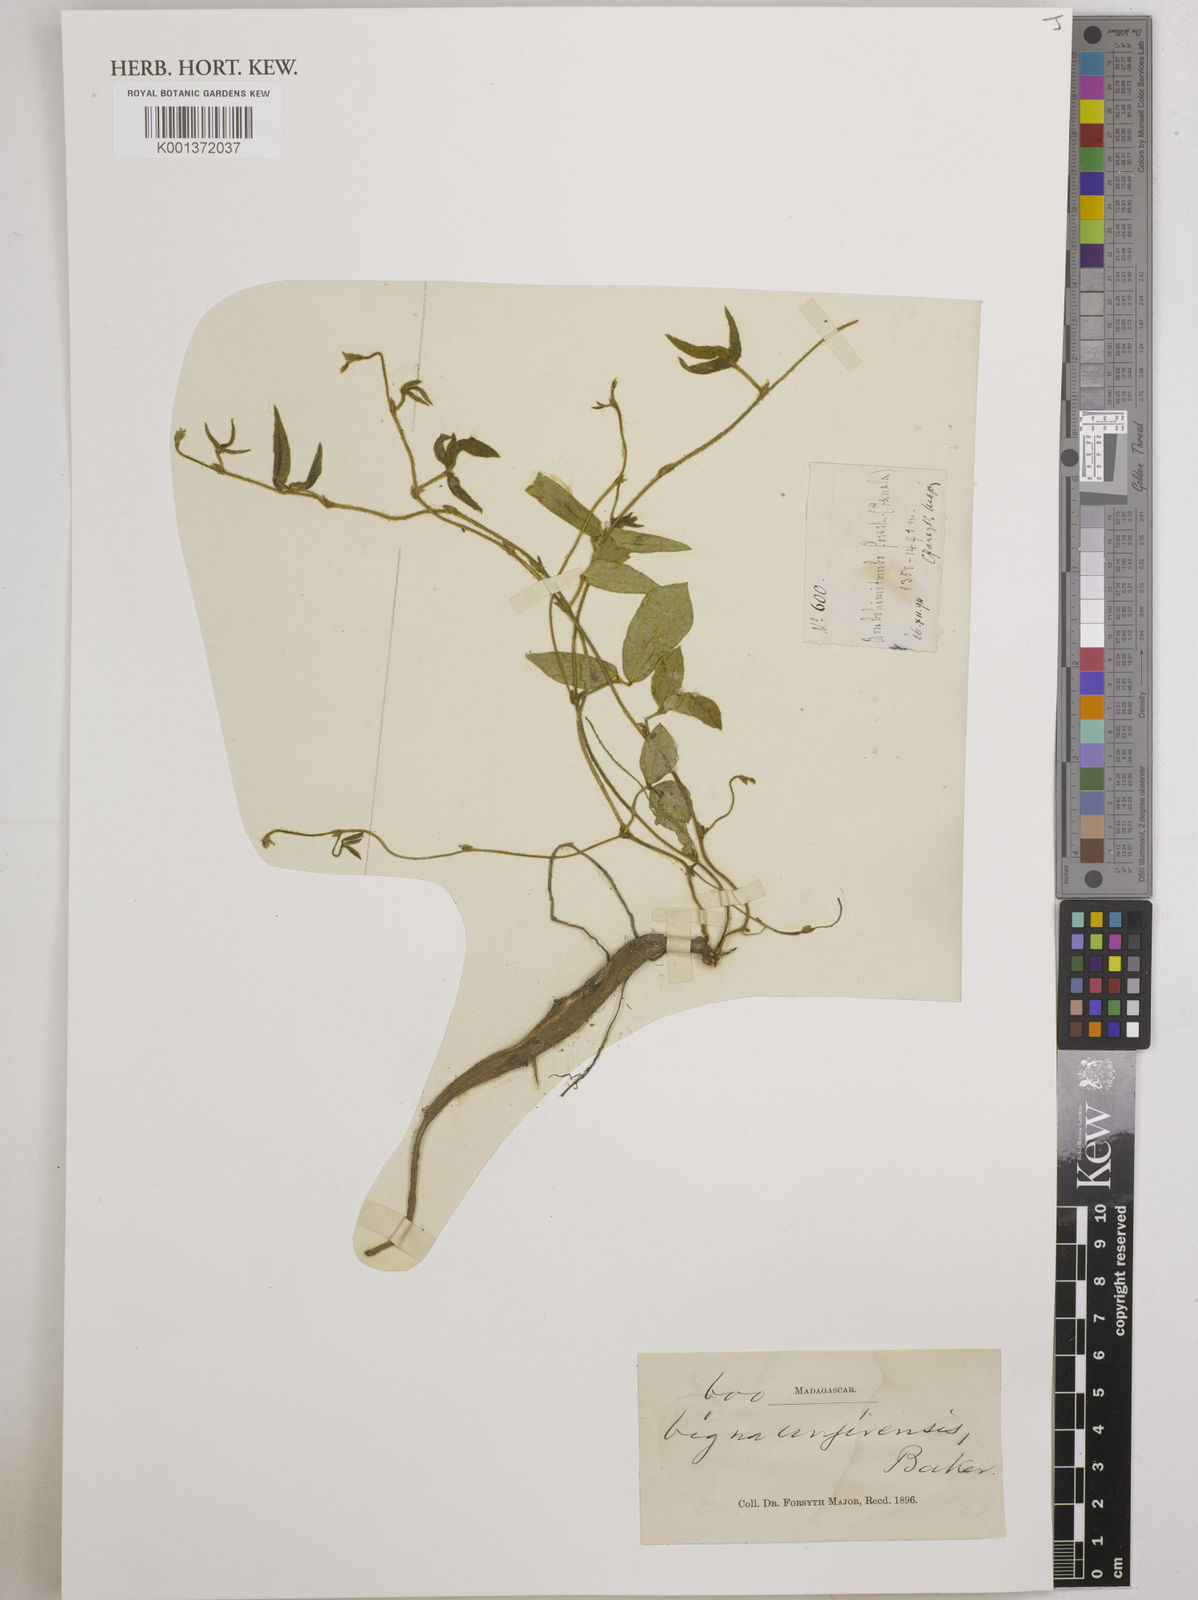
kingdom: Plantae
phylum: Tracheophyta
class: Magnoliopsida
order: Fabales
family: Fabaceae
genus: Vigna
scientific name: Vigna
